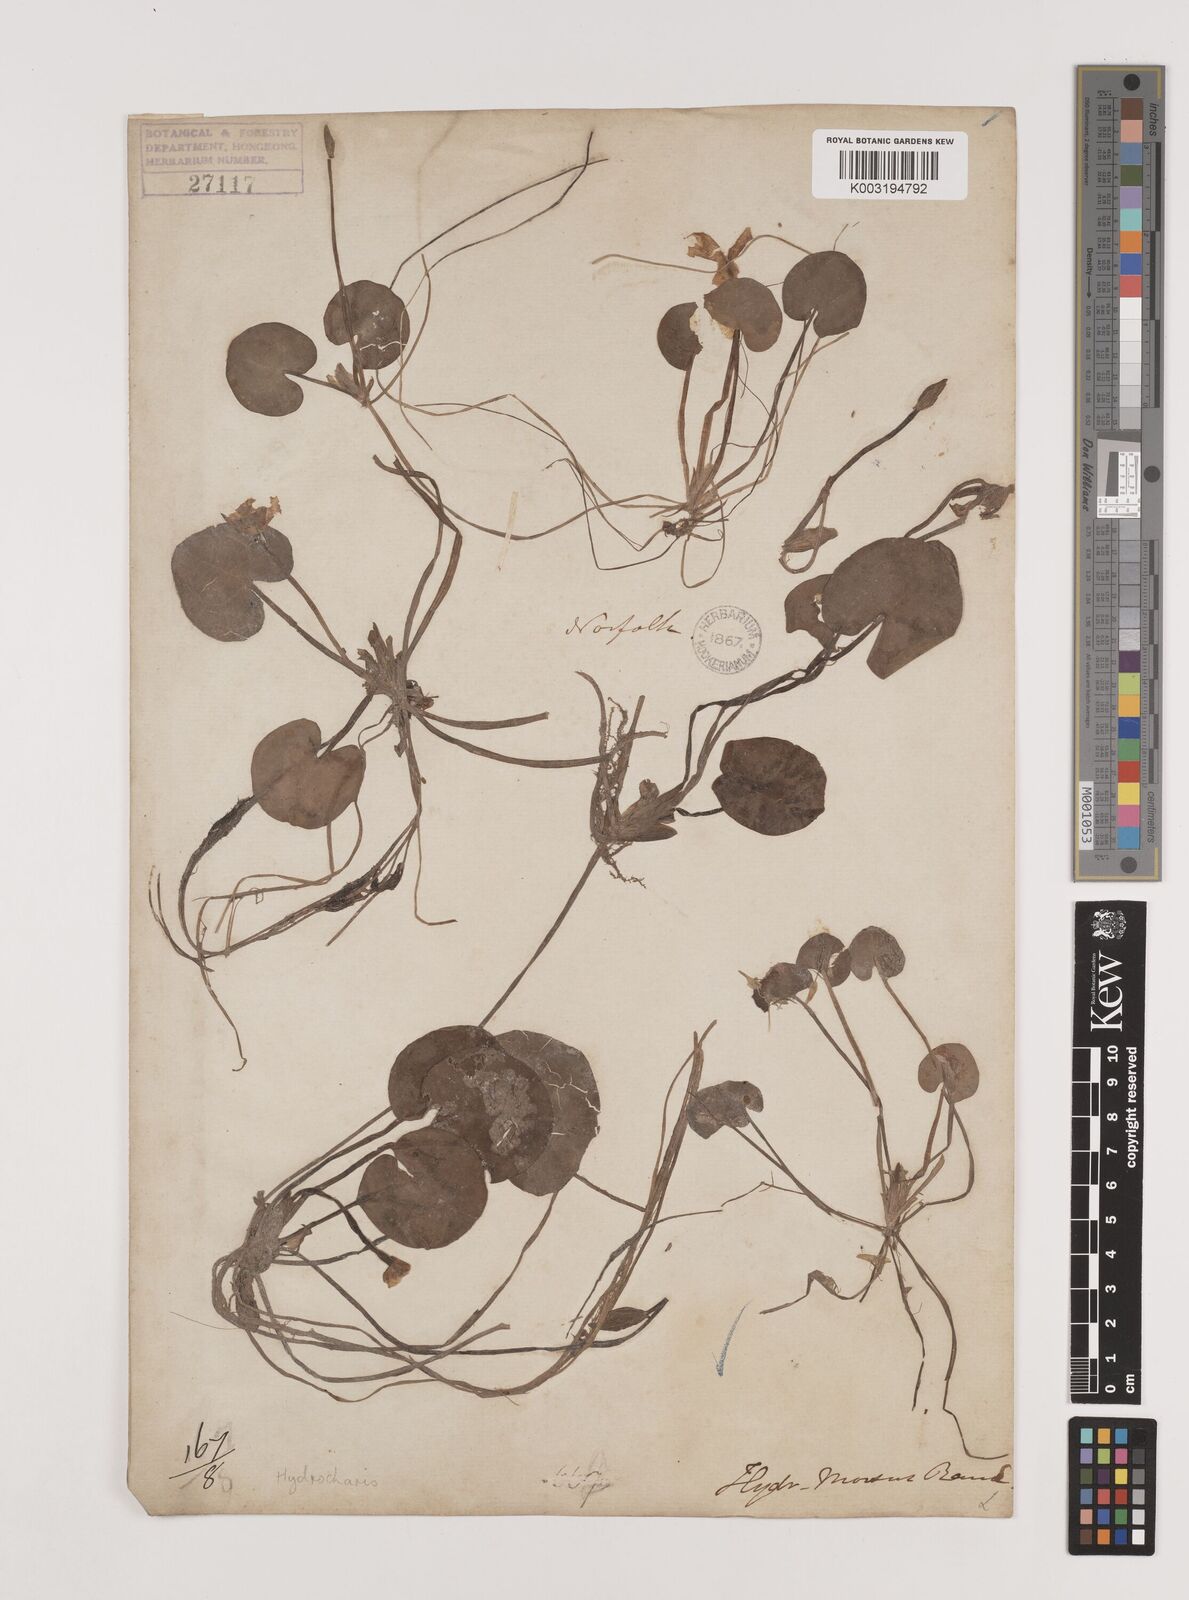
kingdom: Plantae
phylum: Tracheophyta
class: Liliopsida
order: Alismatales
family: Hydrocharitaceae
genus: Hydrocharis
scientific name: Hydrocharis morsus-ranae
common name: Frogbit
